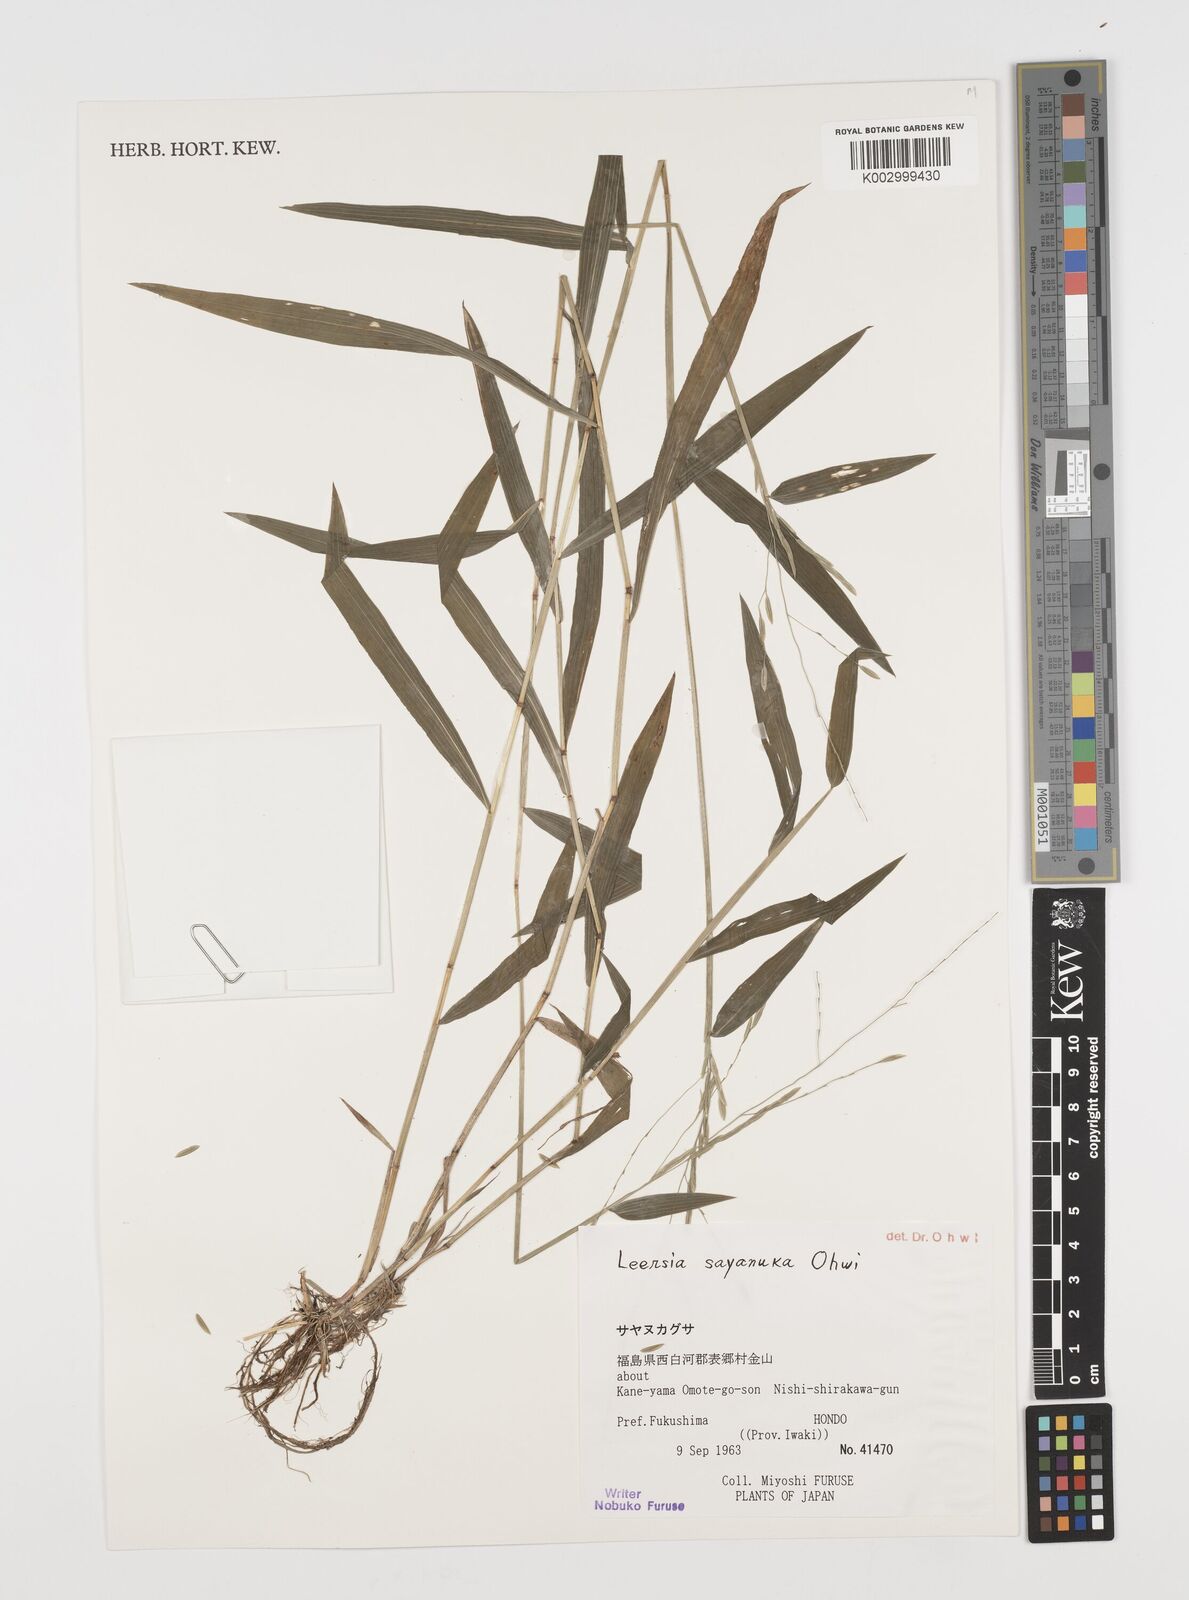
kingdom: Plantae
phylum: Tracheophyta
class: Liliopsida
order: Poales
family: Poaceae
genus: Leersia
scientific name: Leersia sayanuka
